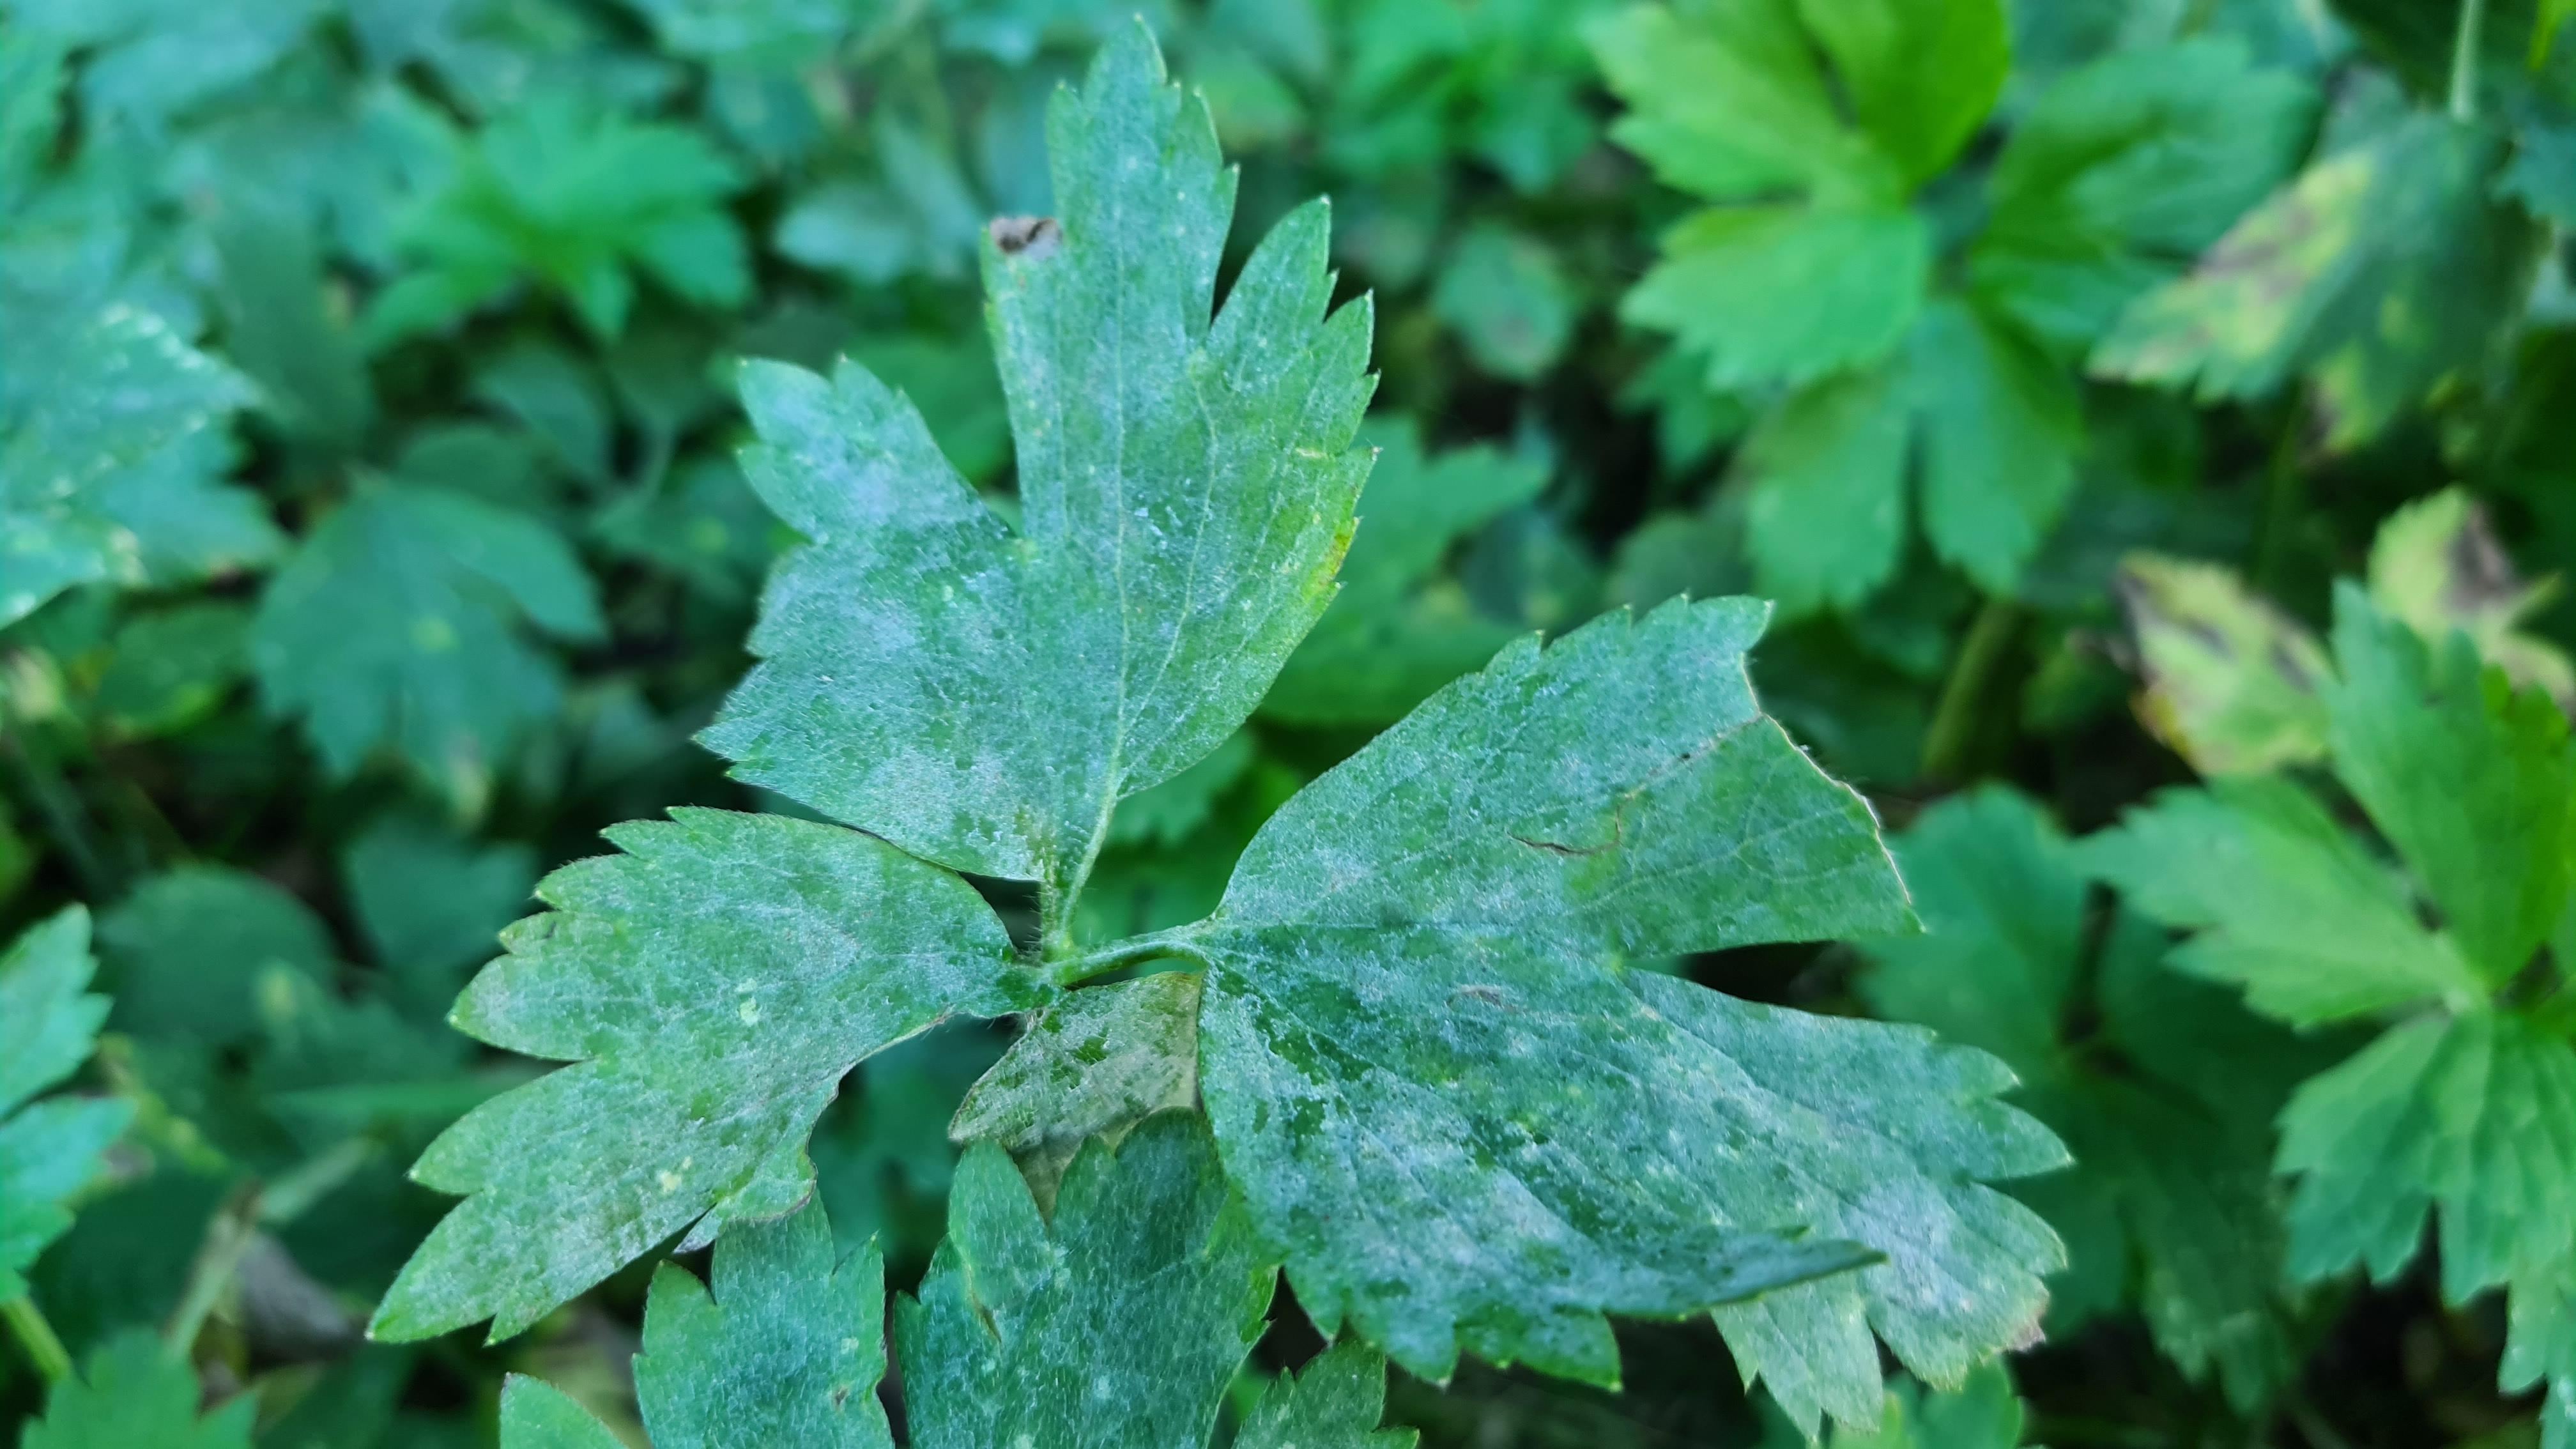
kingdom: Fungi
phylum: Ascomycota
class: Leotiomycetes
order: Helotiales
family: Erysiphaceae
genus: Erysiphe
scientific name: Erysiphe aquilegiae
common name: ranunkel-meldug
